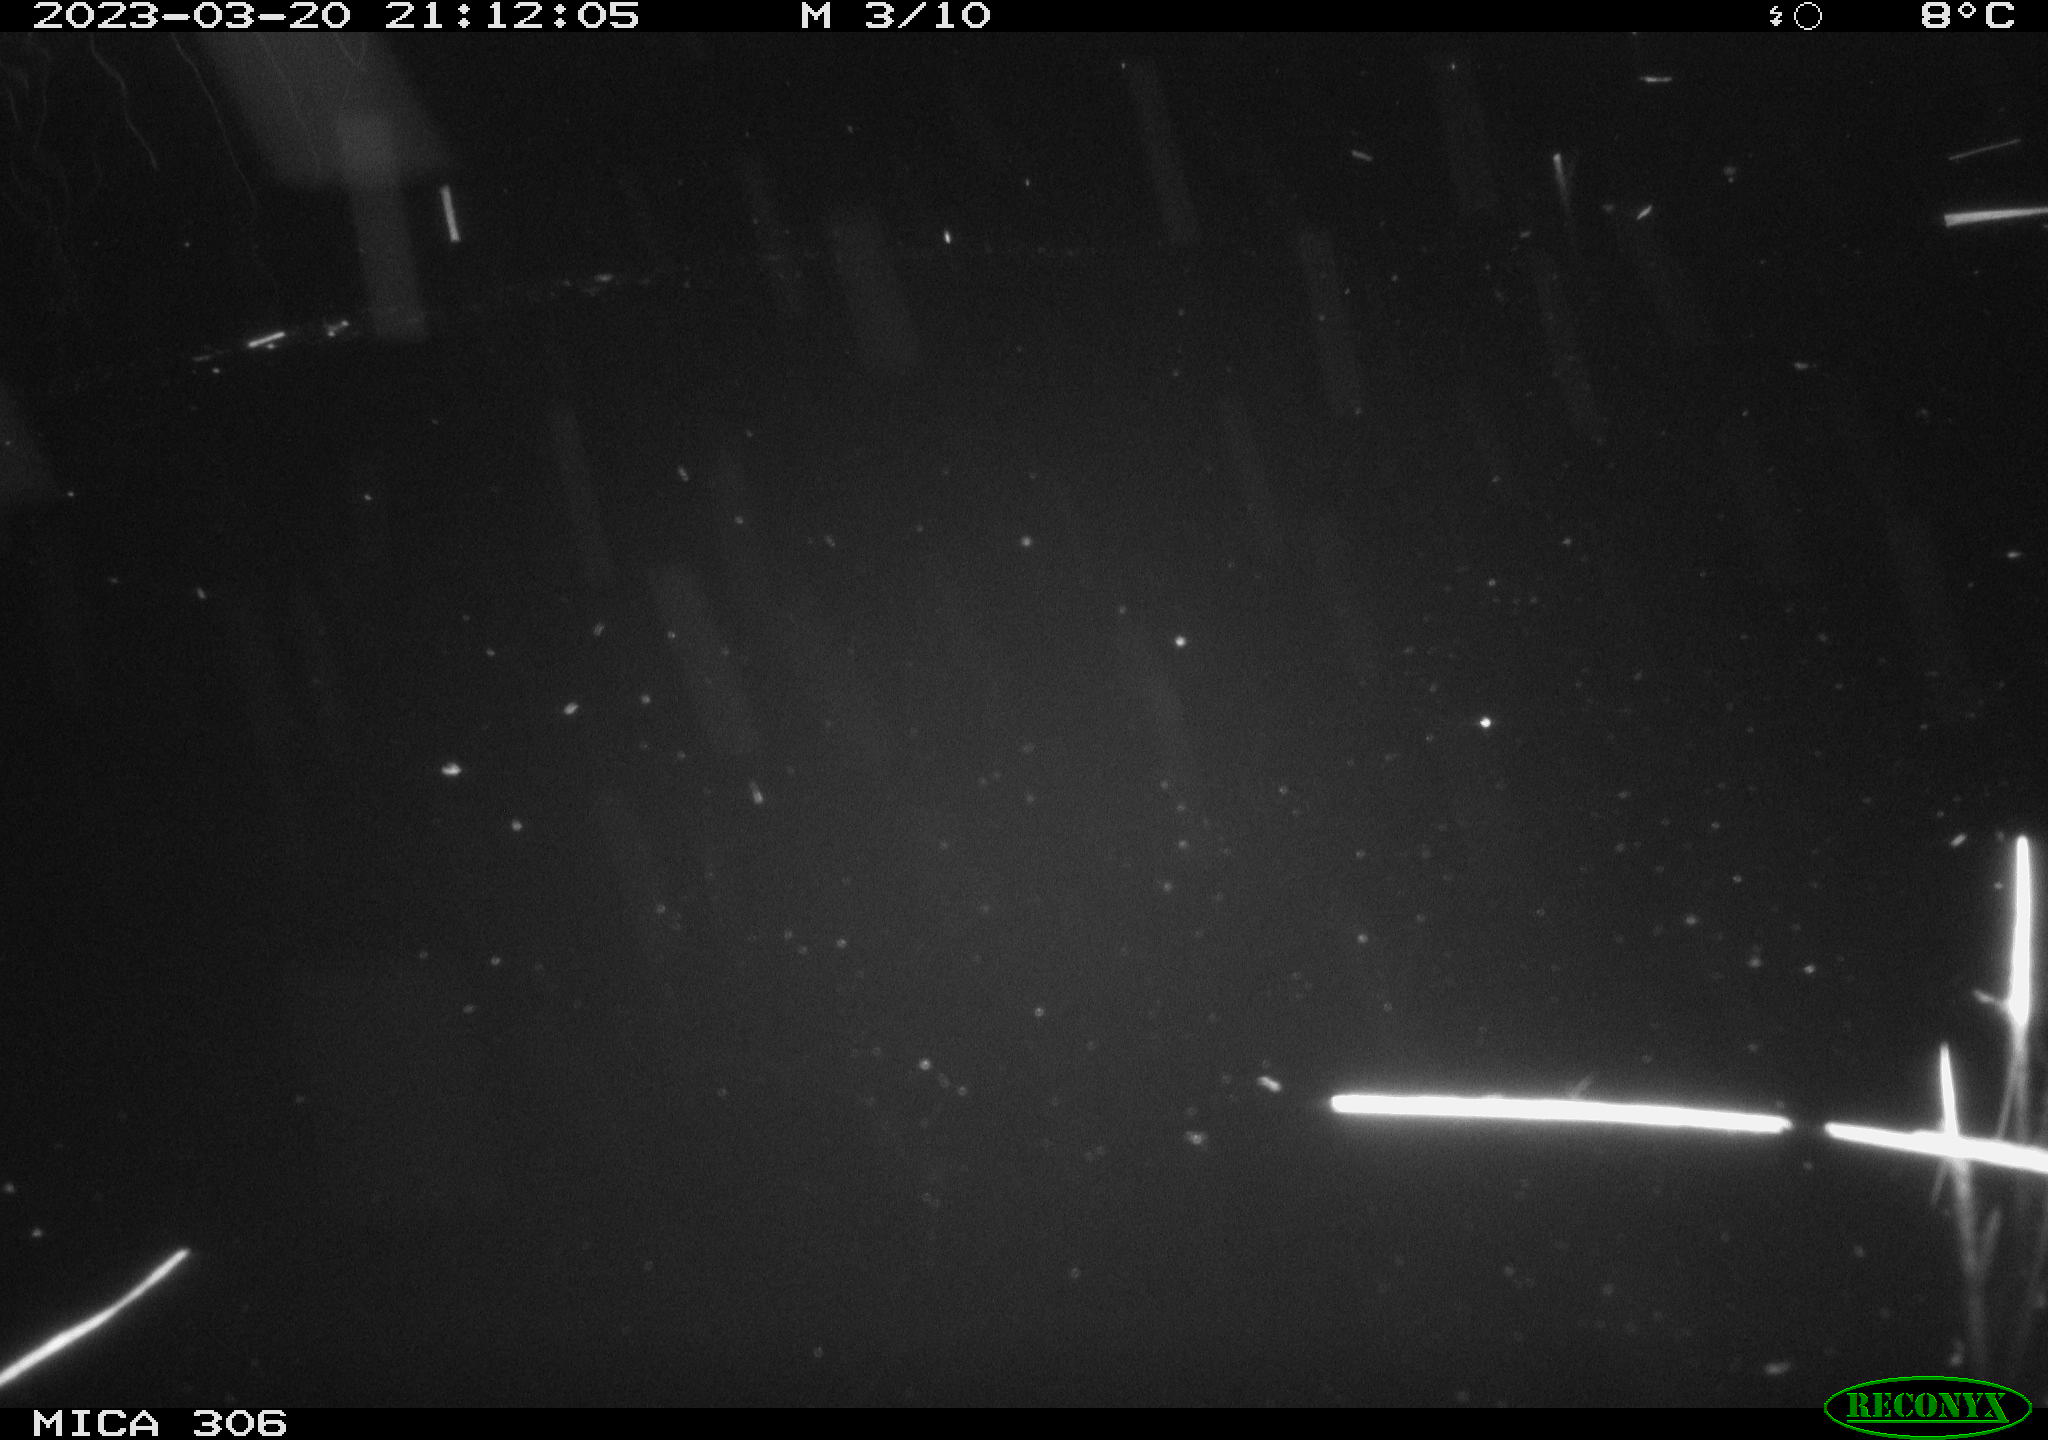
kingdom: Animalia
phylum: Chordata
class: Aves
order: Anseriformes
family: Anatidae
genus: Anas
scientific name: Anas
